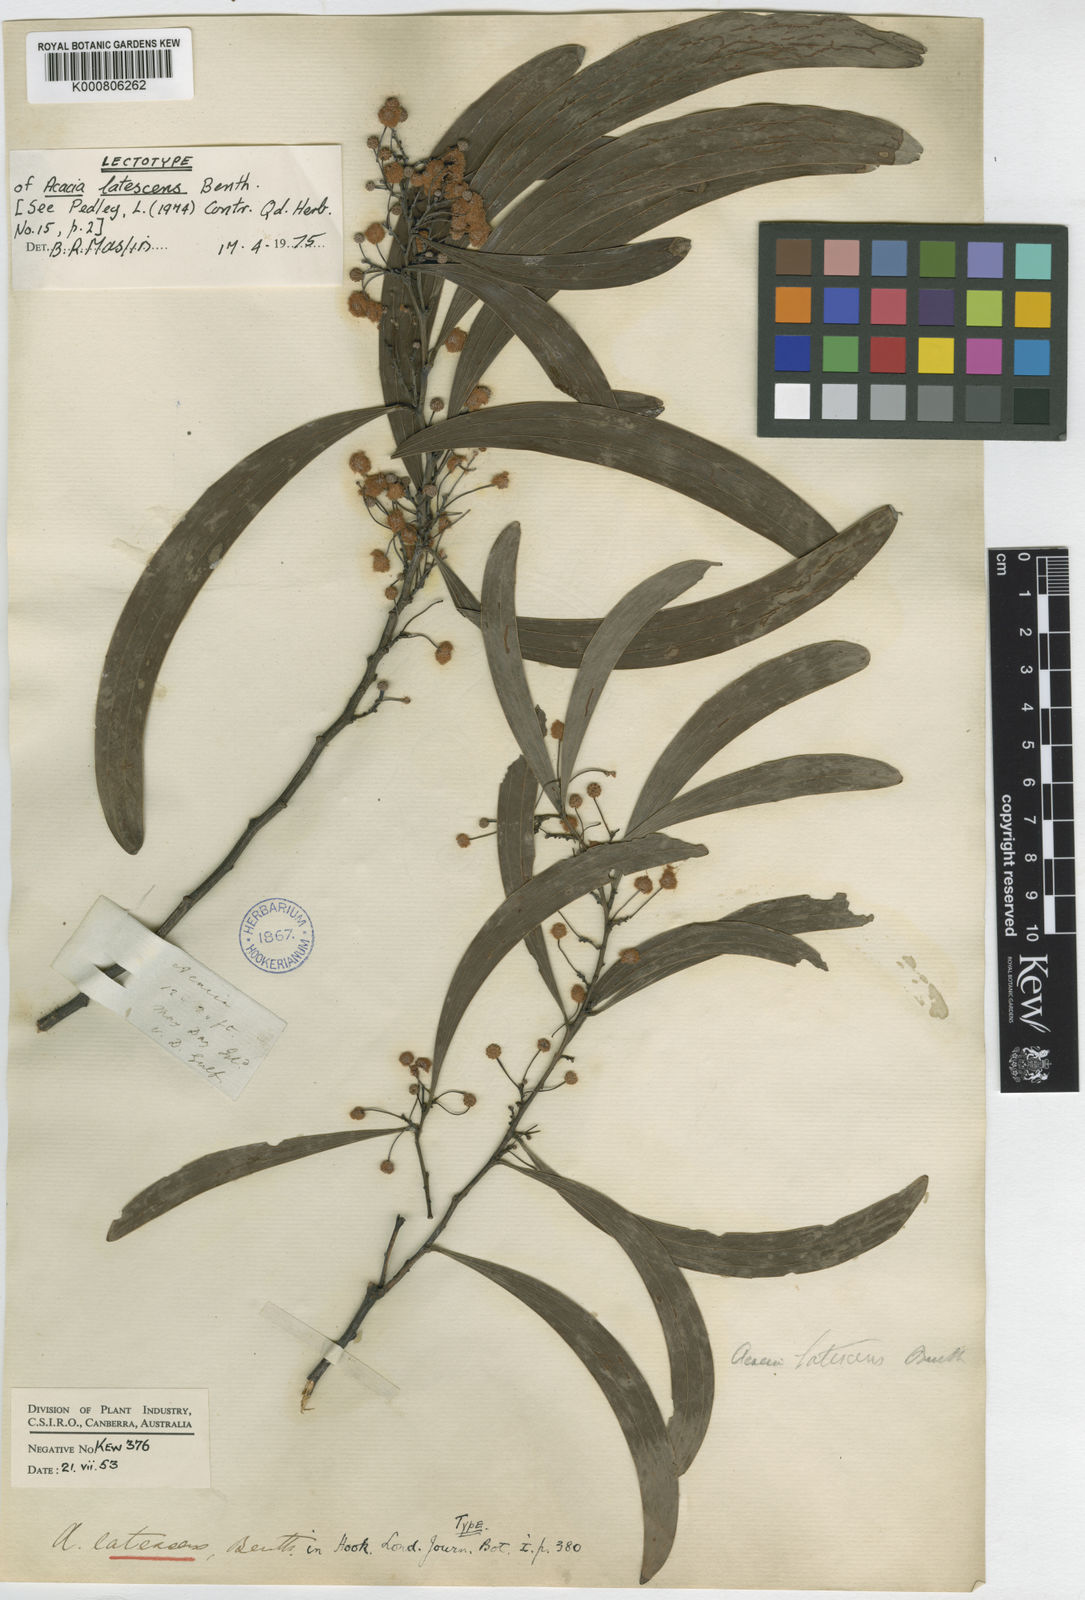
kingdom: Plantae
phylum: Tracheophyta
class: Magnoliopsida
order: Fabales
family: Fabaceae
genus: Acacia
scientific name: Acacia latescens
